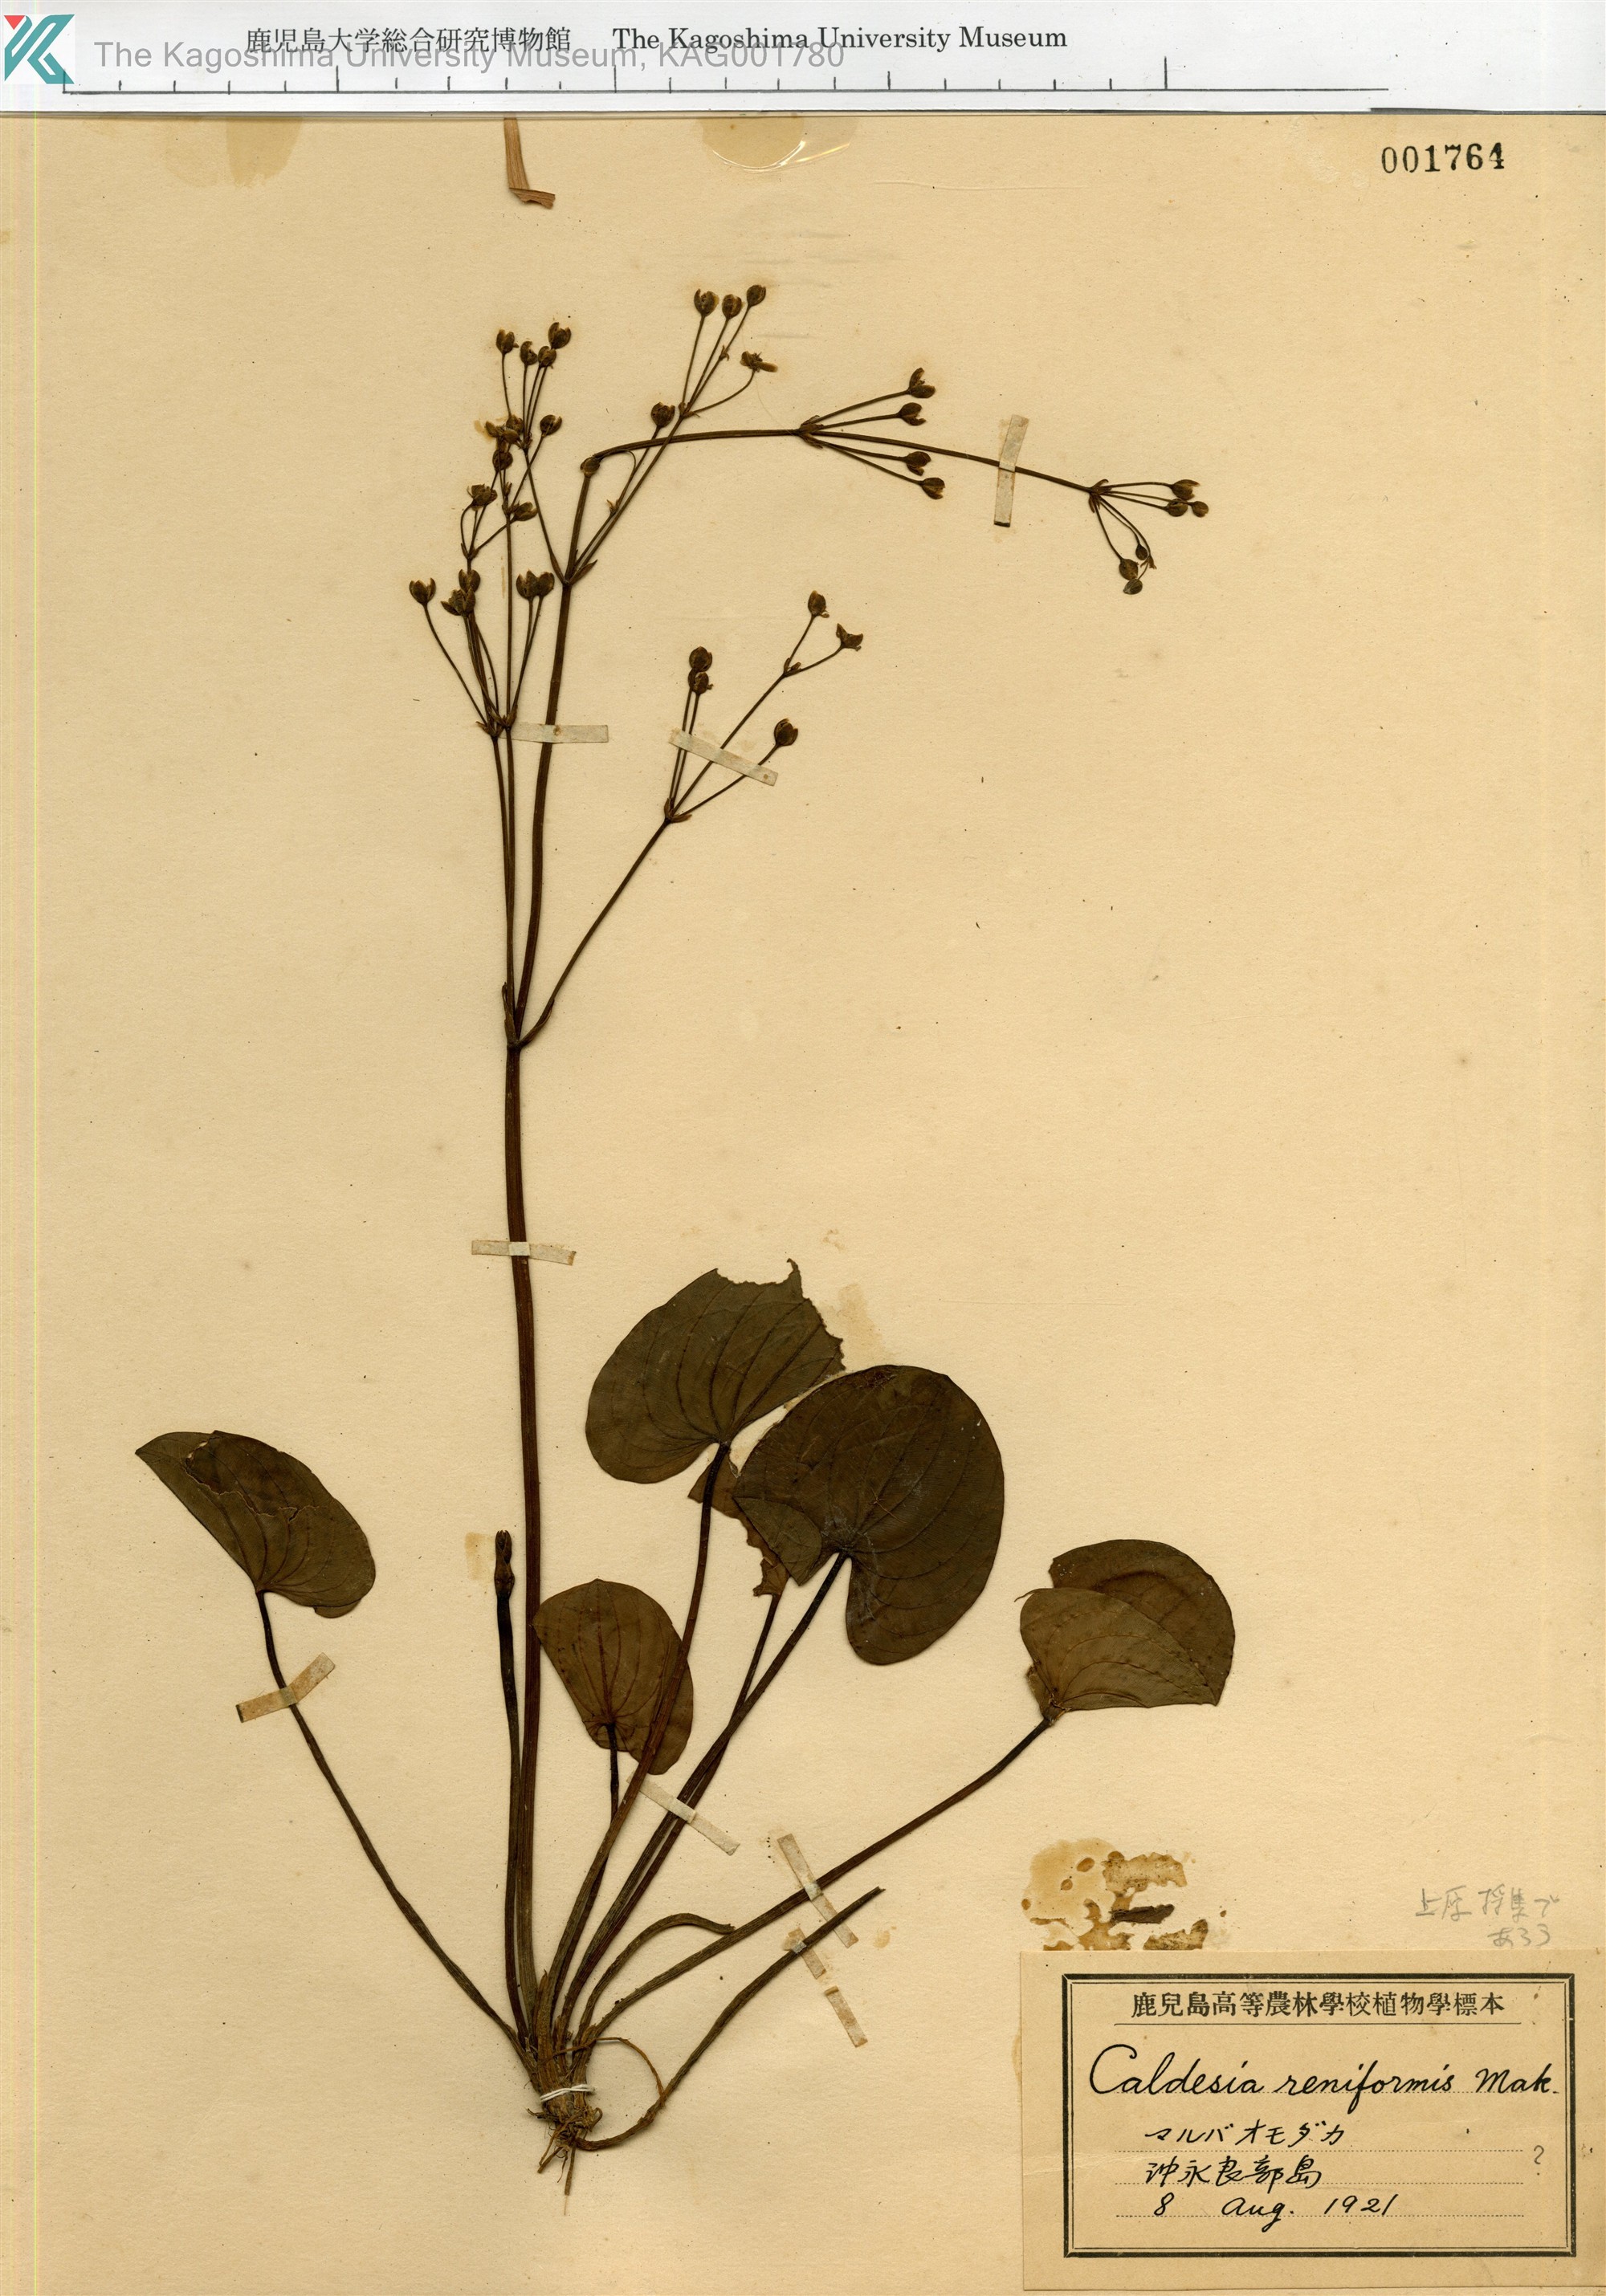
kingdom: Plantae
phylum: Tracheophyta
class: Liliopsida
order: Alismatales
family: Alismataceae
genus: Sagittaria
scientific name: Sagittaria
